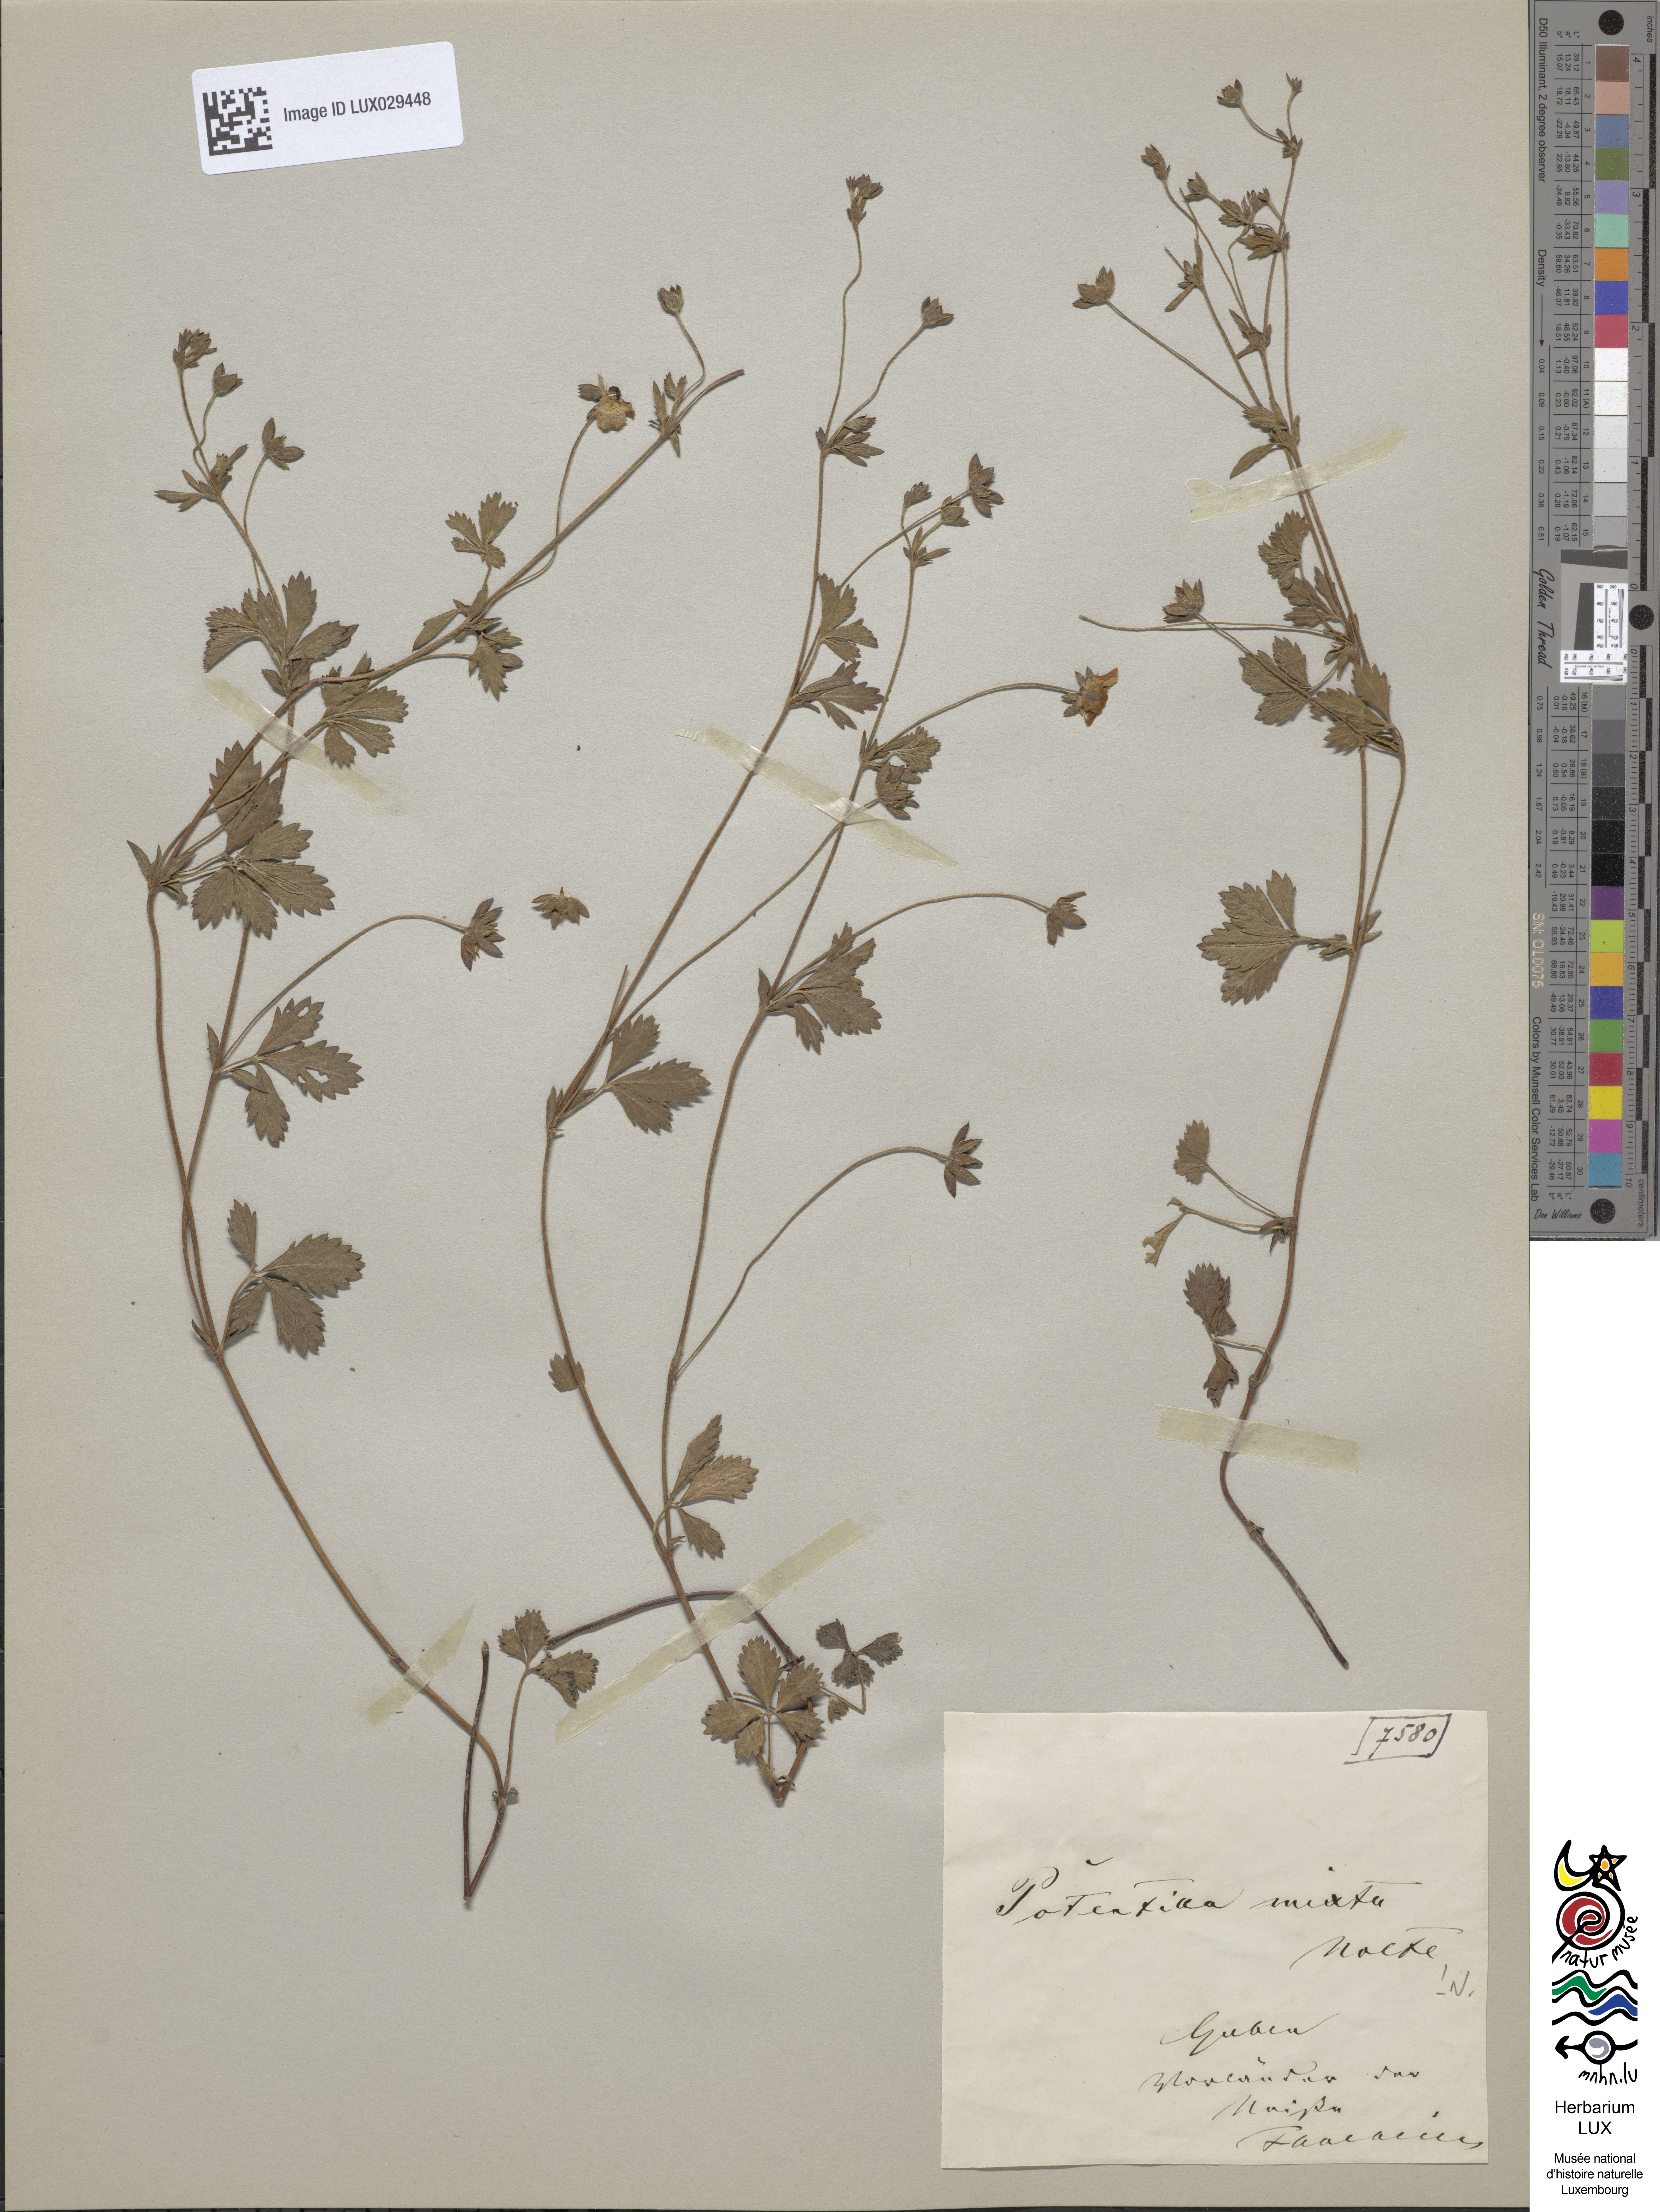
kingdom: Plantae
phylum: Tracheophyta
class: Magnoliopsida
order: Rosales
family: Rosaceae
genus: Potentilla
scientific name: Potentilla mixta
